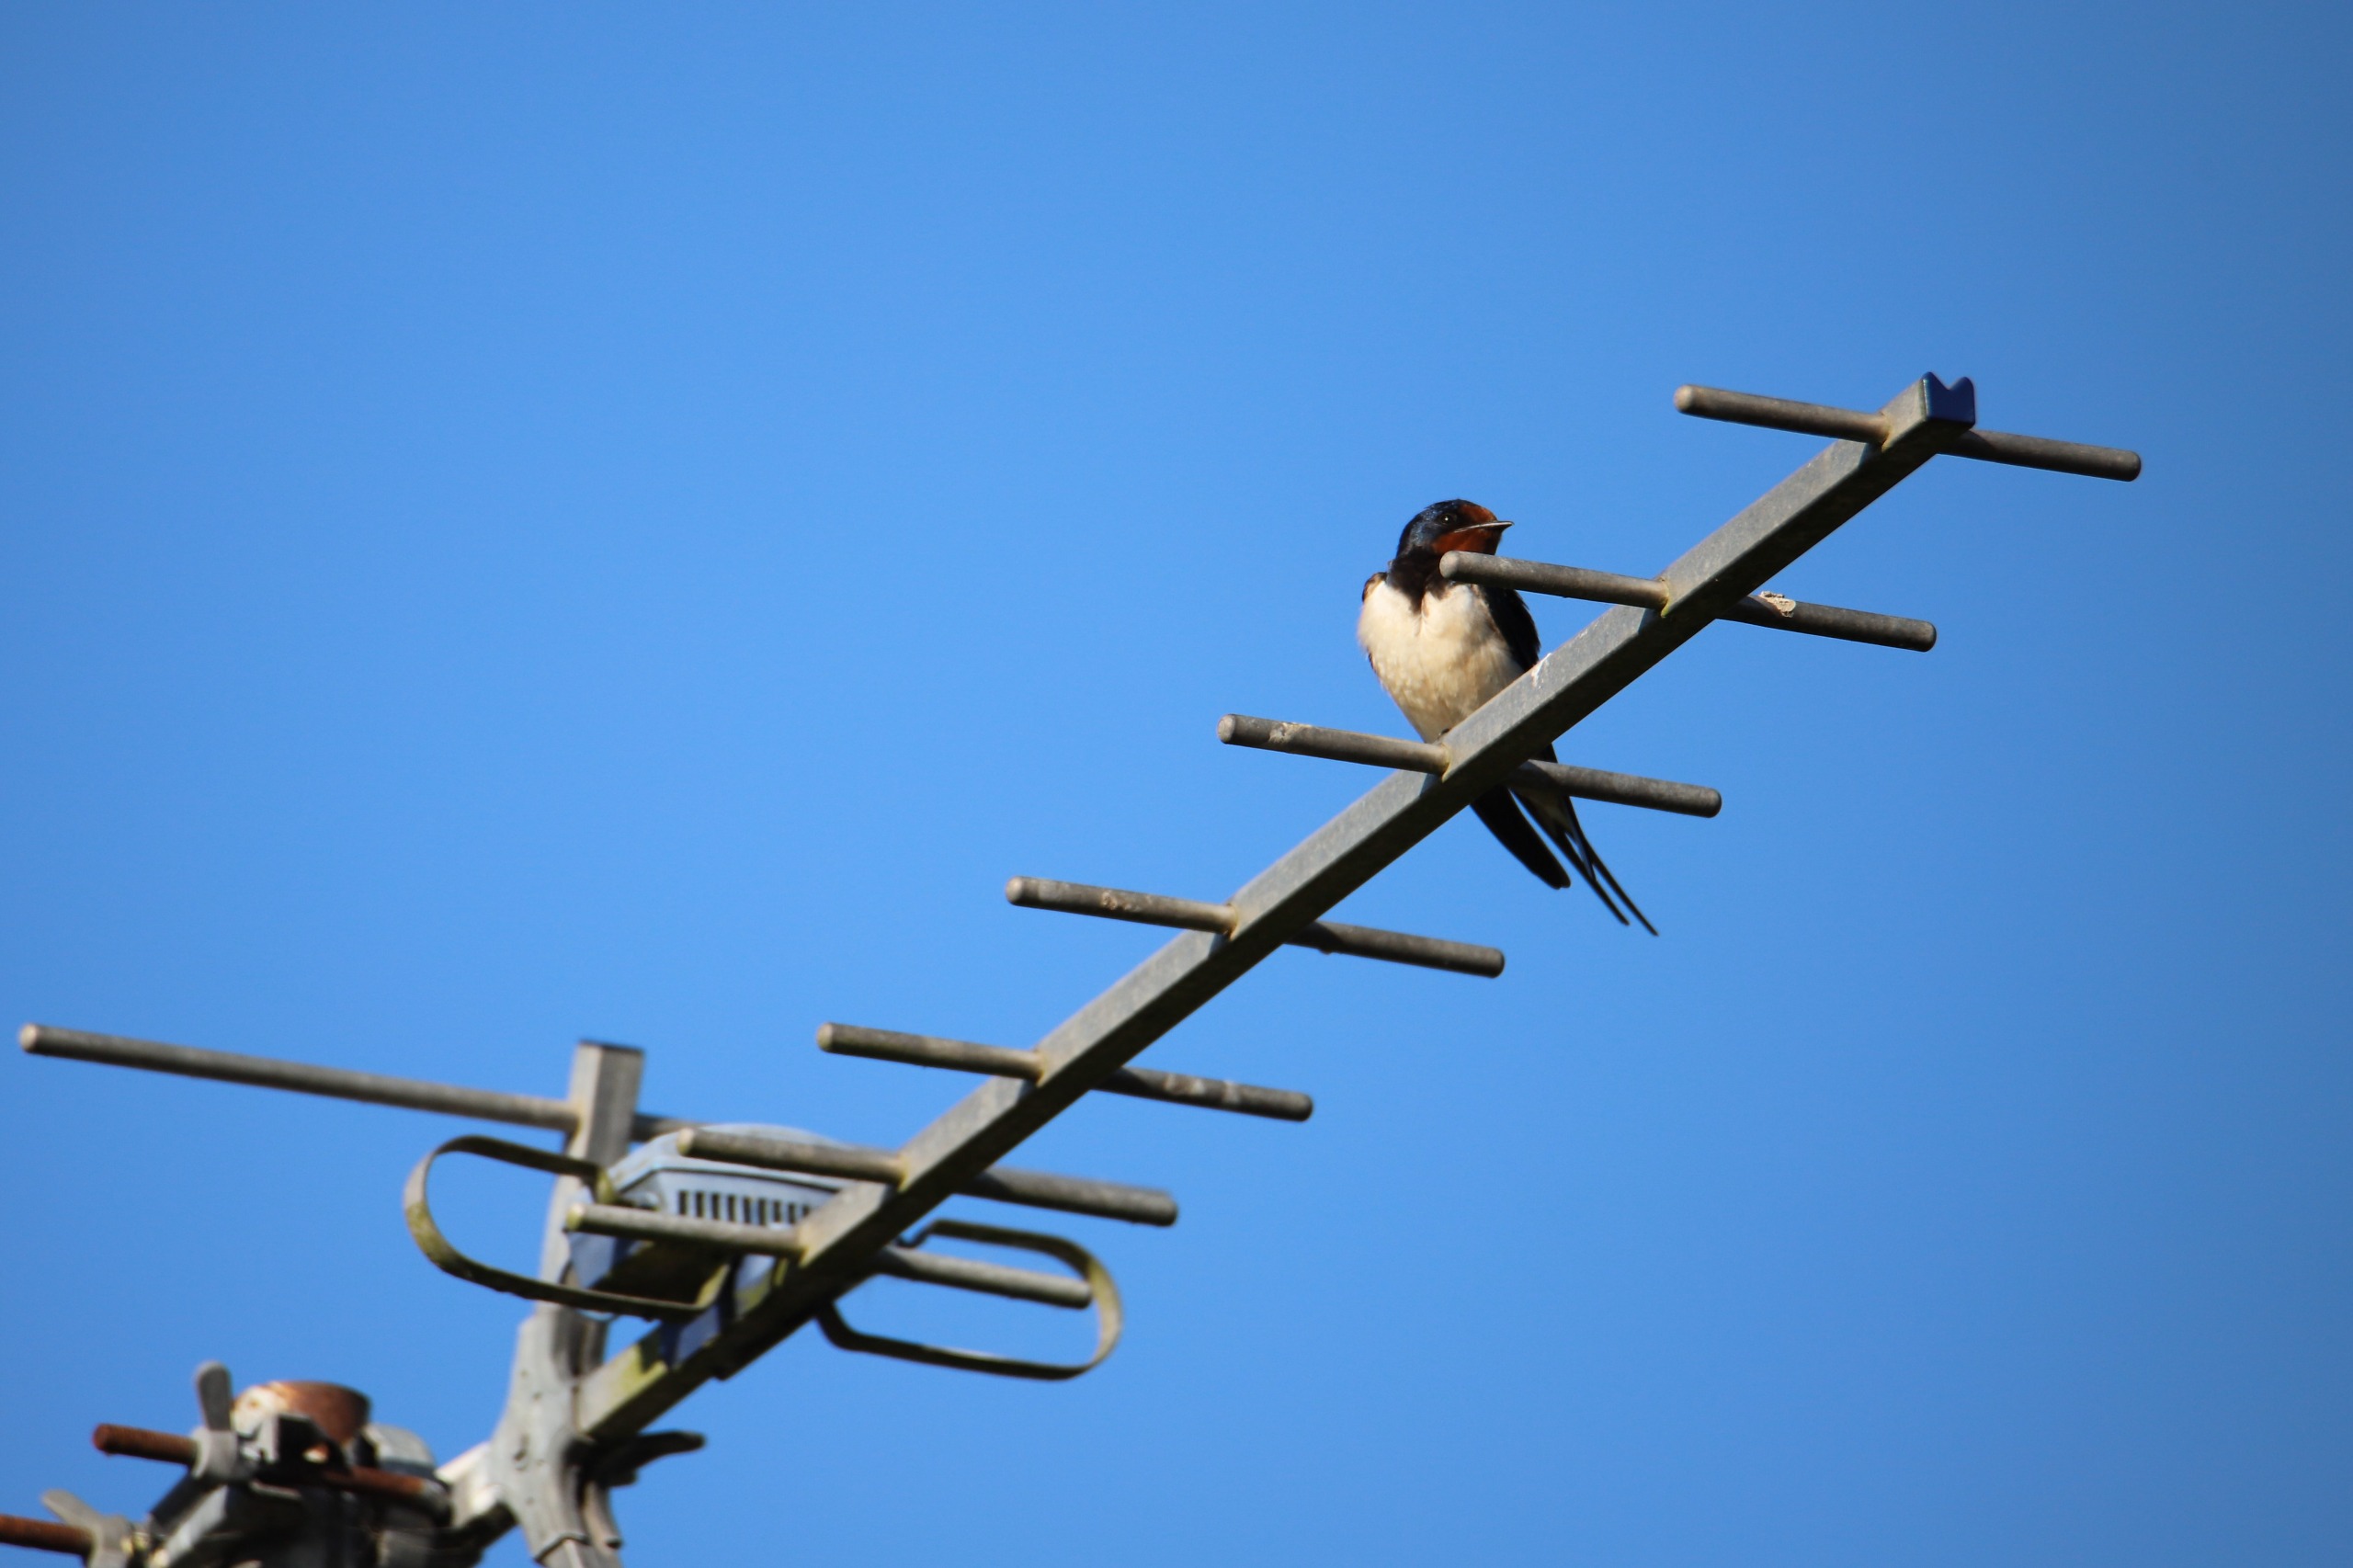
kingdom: Animalia
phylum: Chordata
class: Aves
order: Passeriformes
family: Hirundinidae
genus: Hirundo
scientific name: Hirundo rustica
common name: Landsvale
